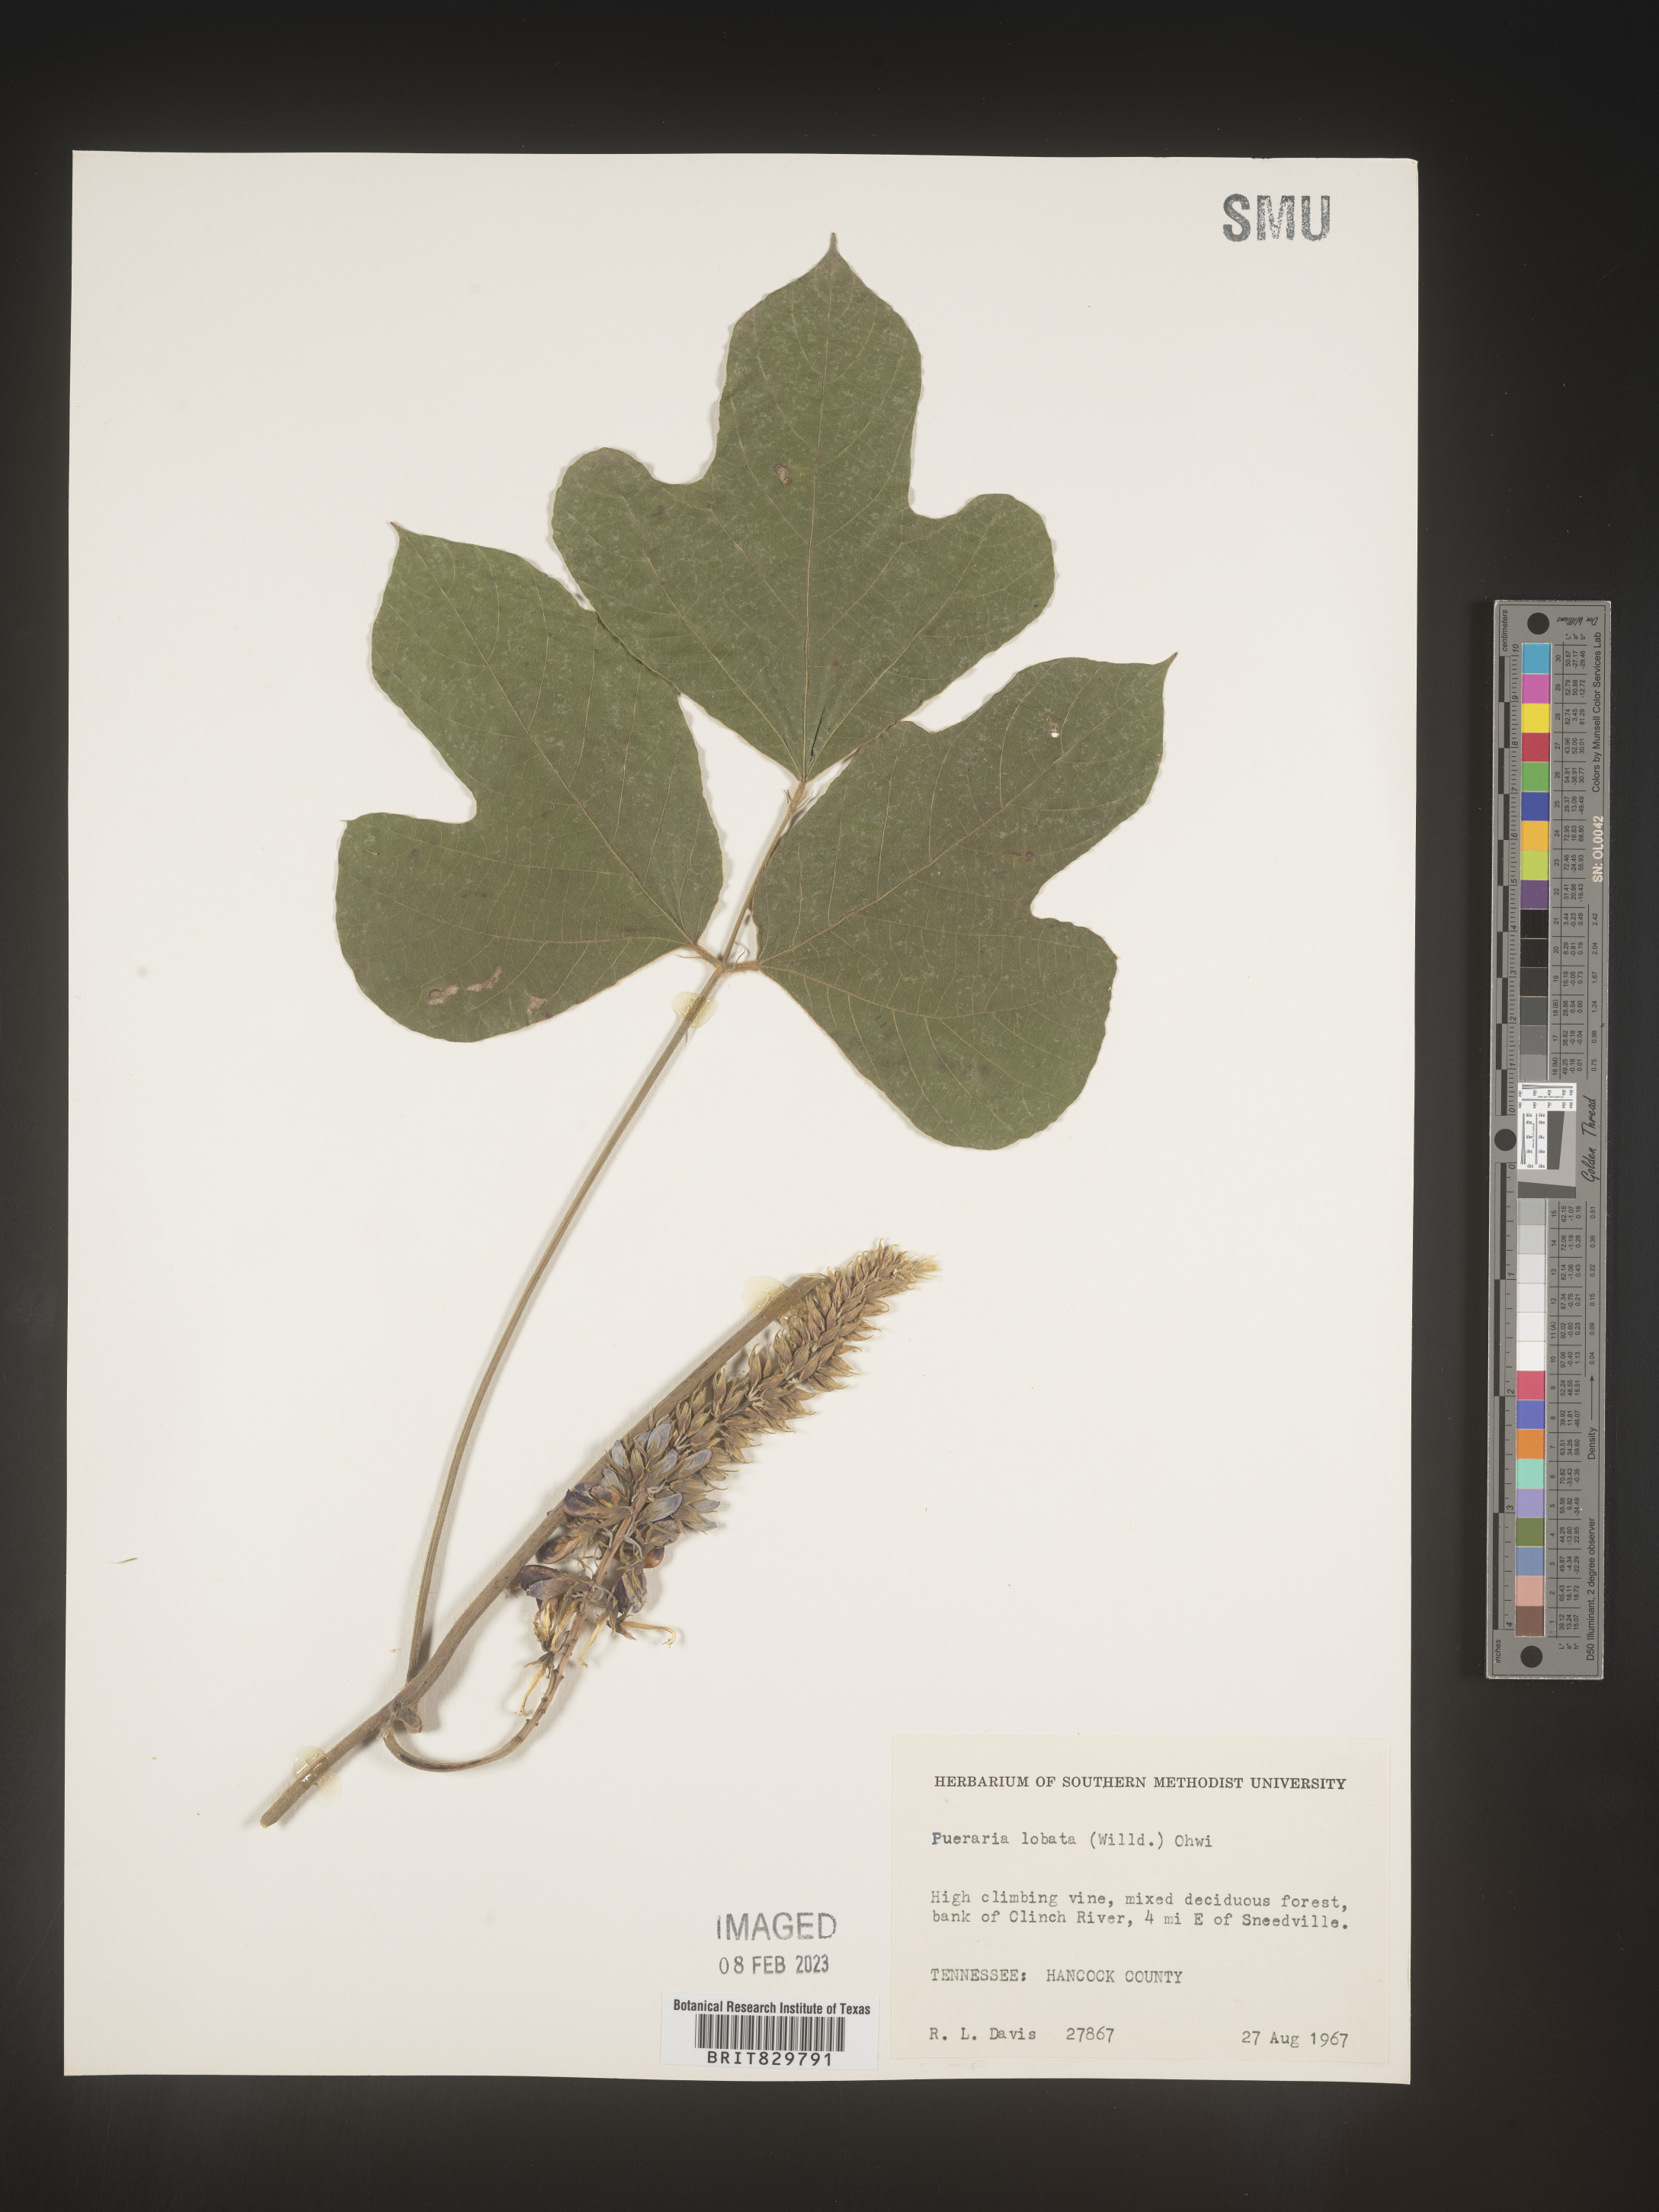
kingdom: Plantae
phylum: Tracheophyta
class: Magnoliopsida
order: Fabales
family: Fabaceae
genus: Pueraria
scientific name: Pueraria montana
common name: Kudzu
